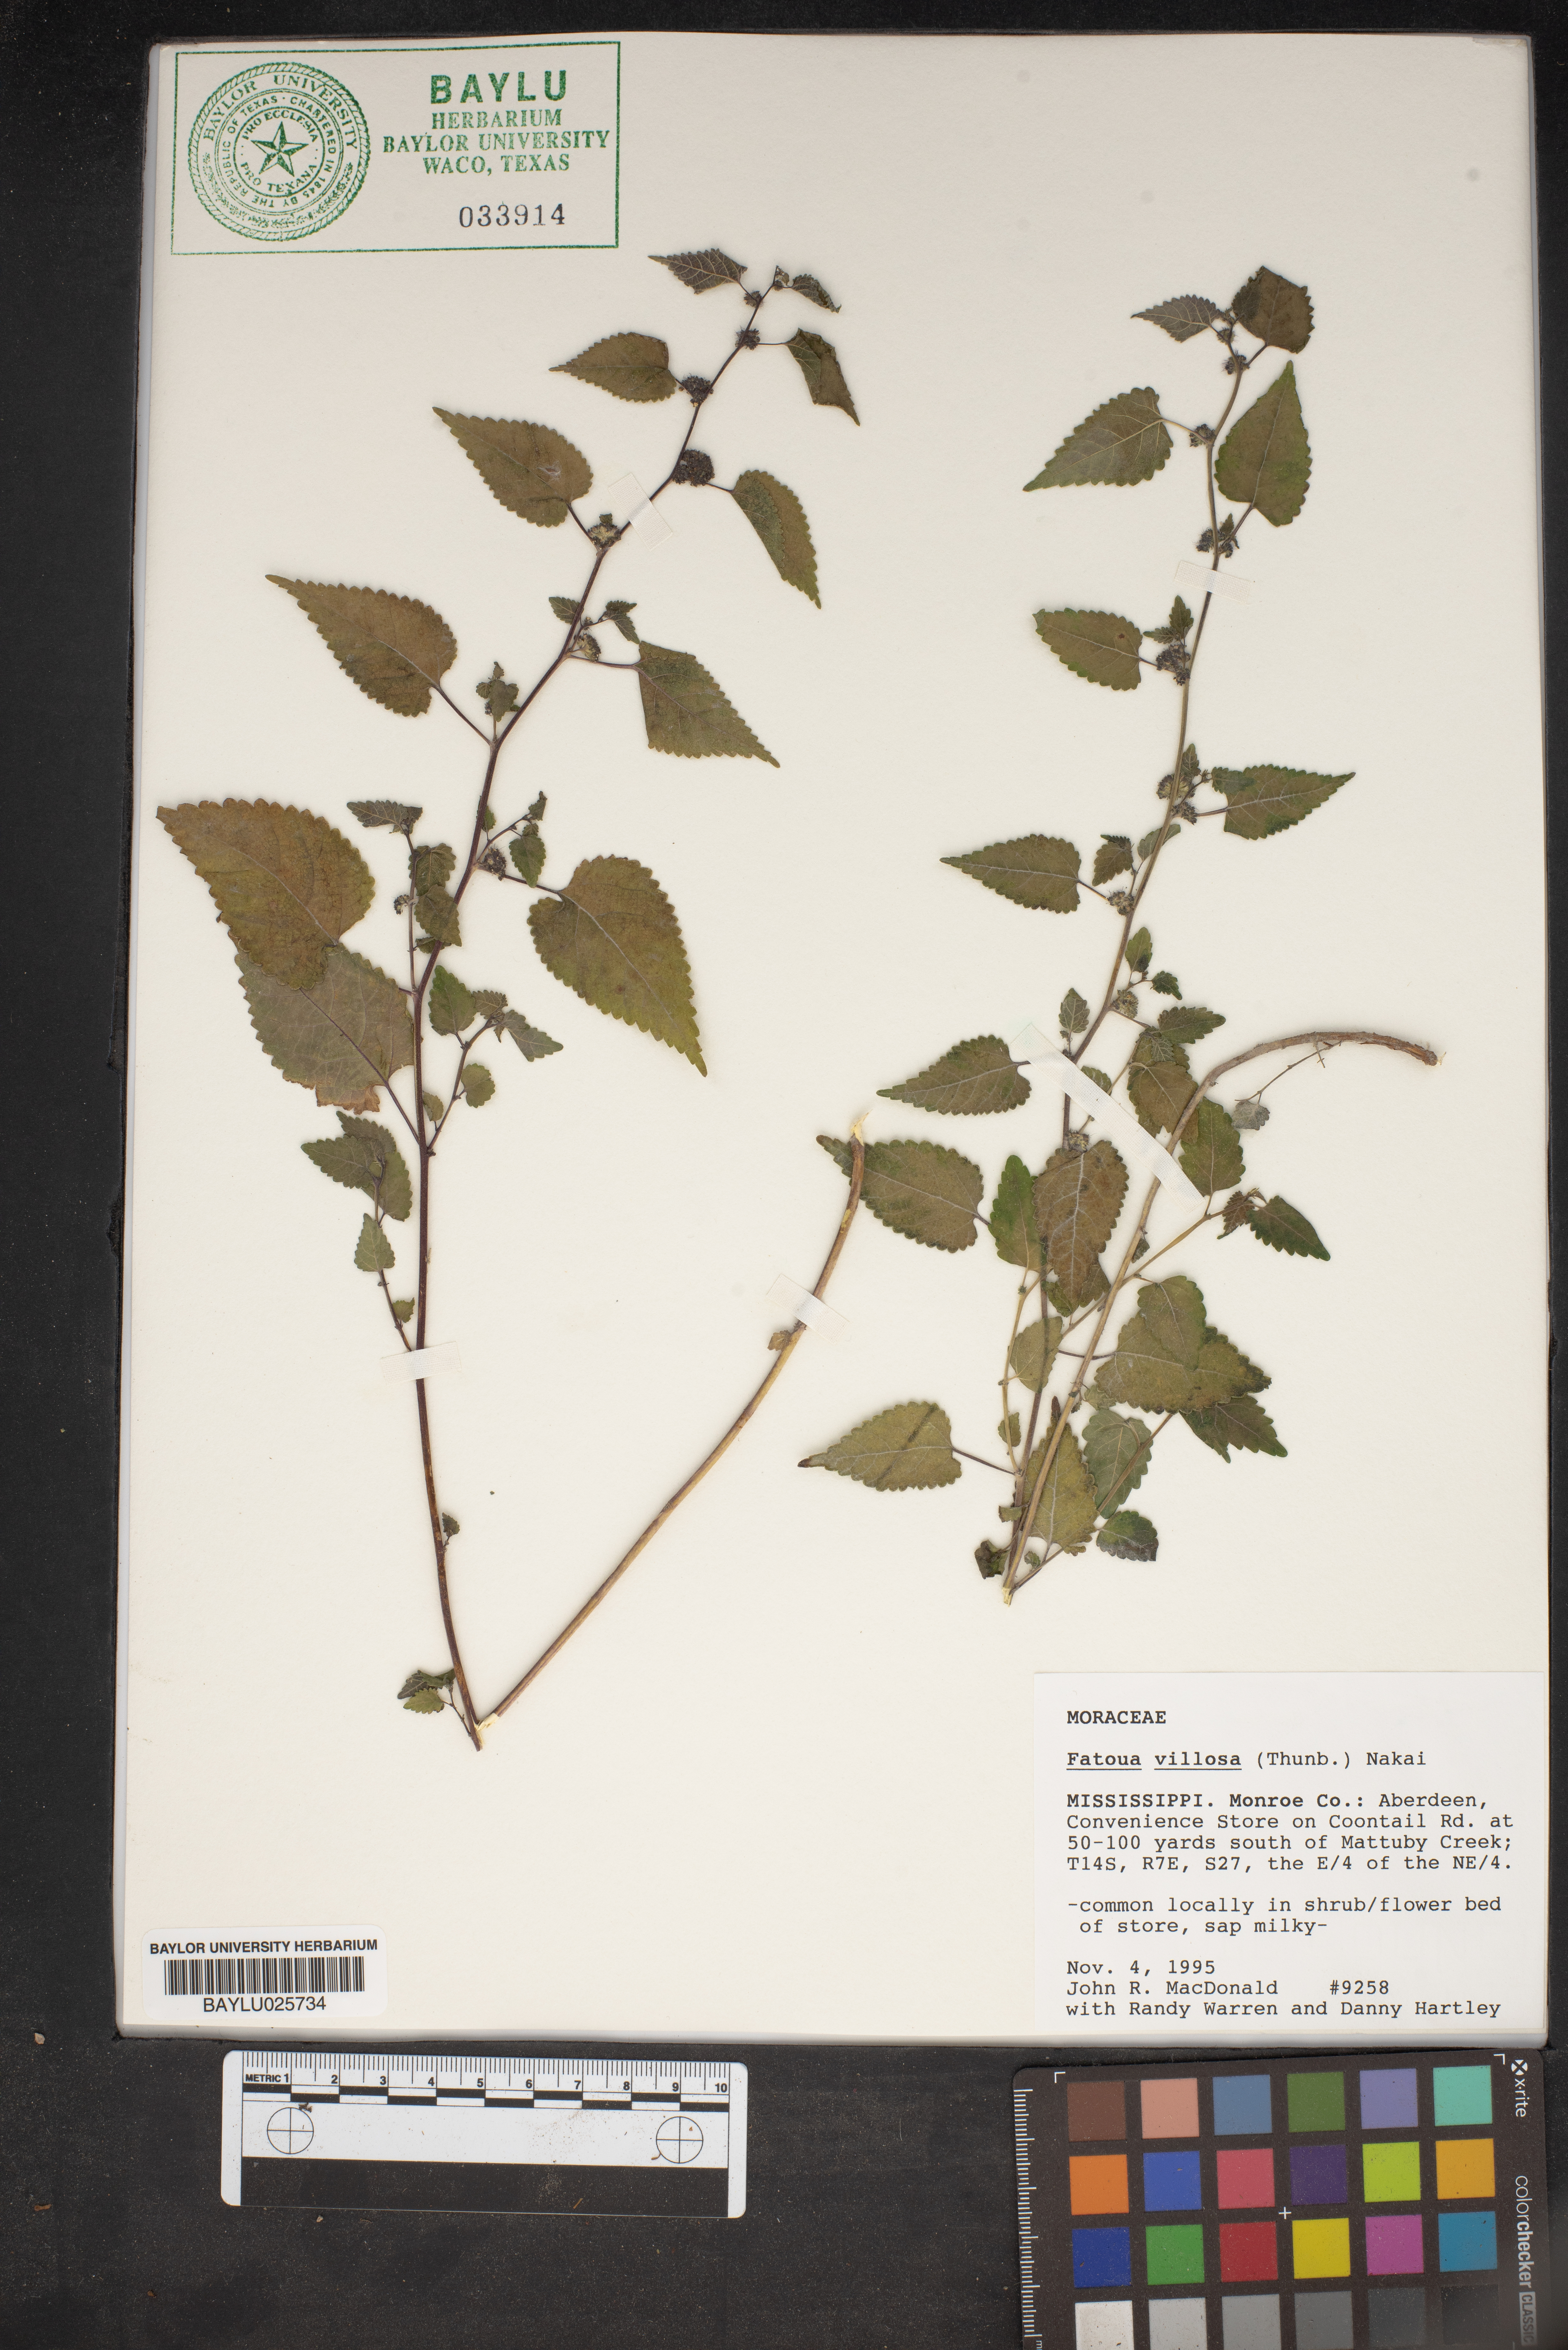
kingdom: Plantae
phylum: Tracheophyta
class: Magnoliopsida
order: Rosales
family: Moraceae
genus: Fatoua
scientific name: Fatoua villosa
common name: Hairy crabweed
